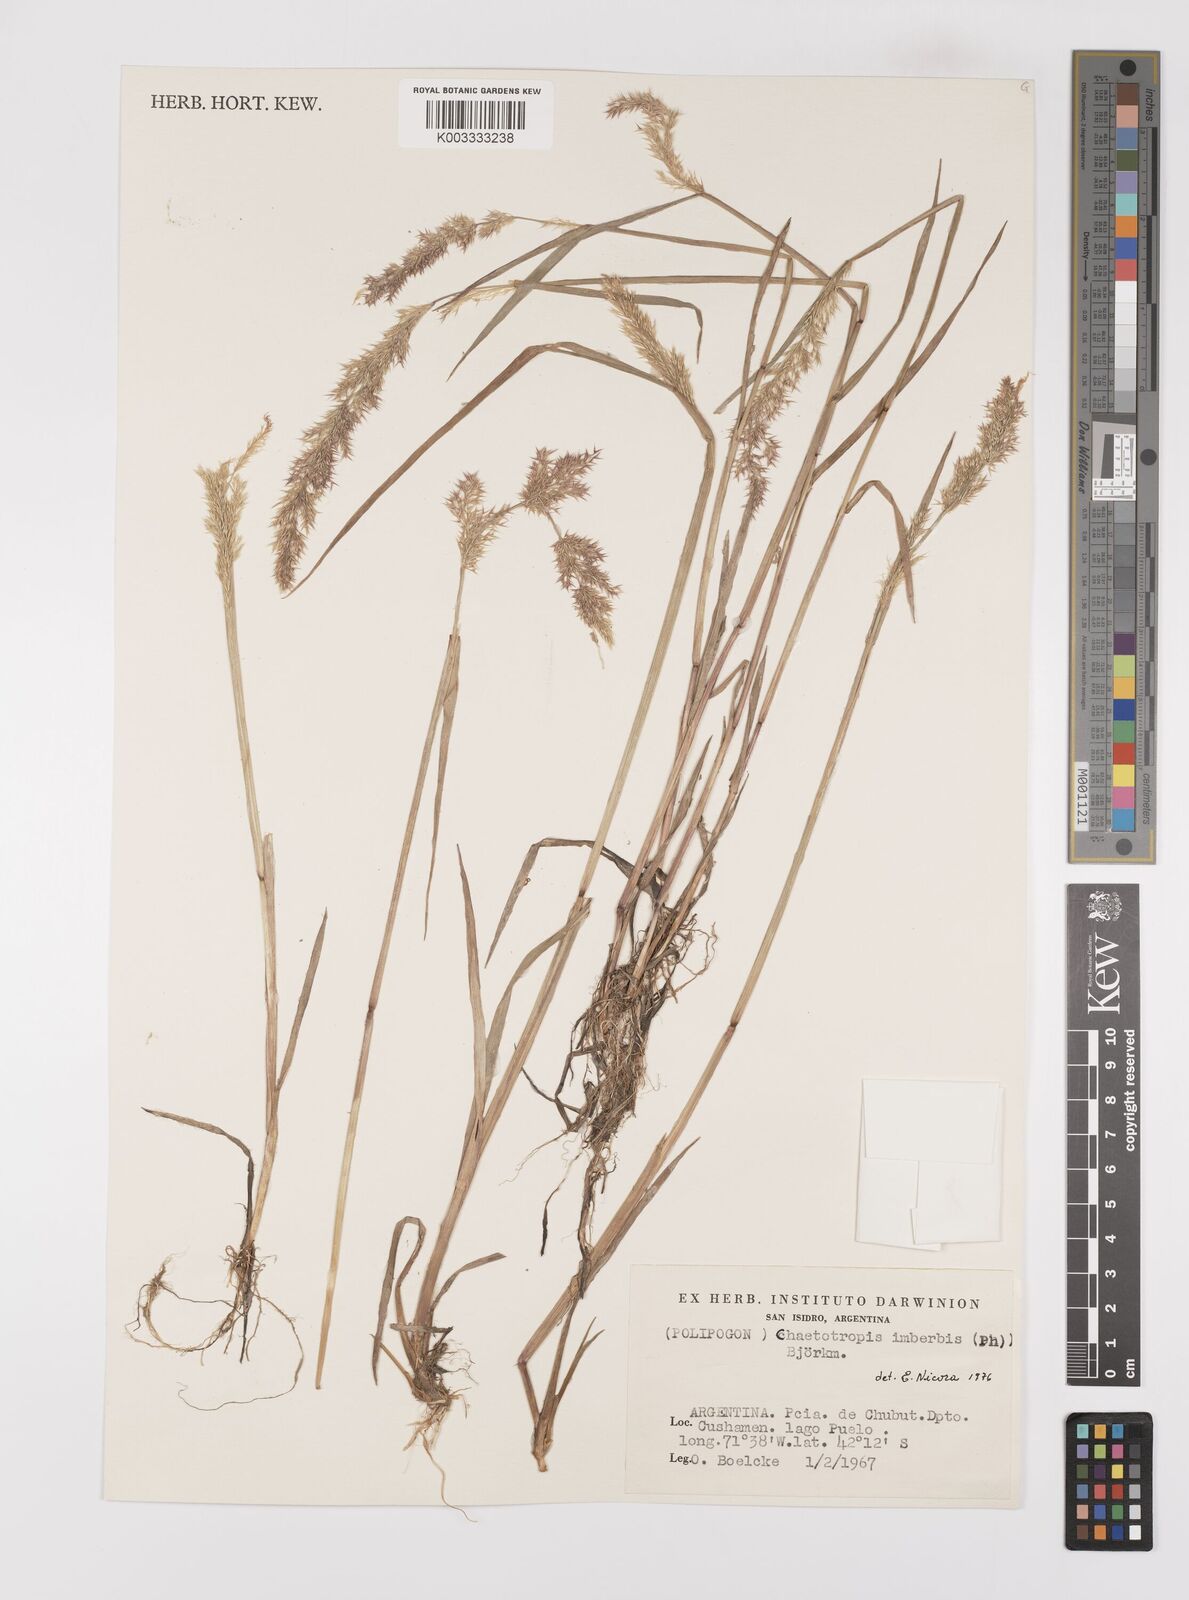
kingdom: Plantae
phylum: Tracheophyta
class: Liliopsida
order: Poales
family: Poaceae
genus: Polypogon
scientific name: Polypogon imberbis
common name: Beardless rabbitsfoot grass
